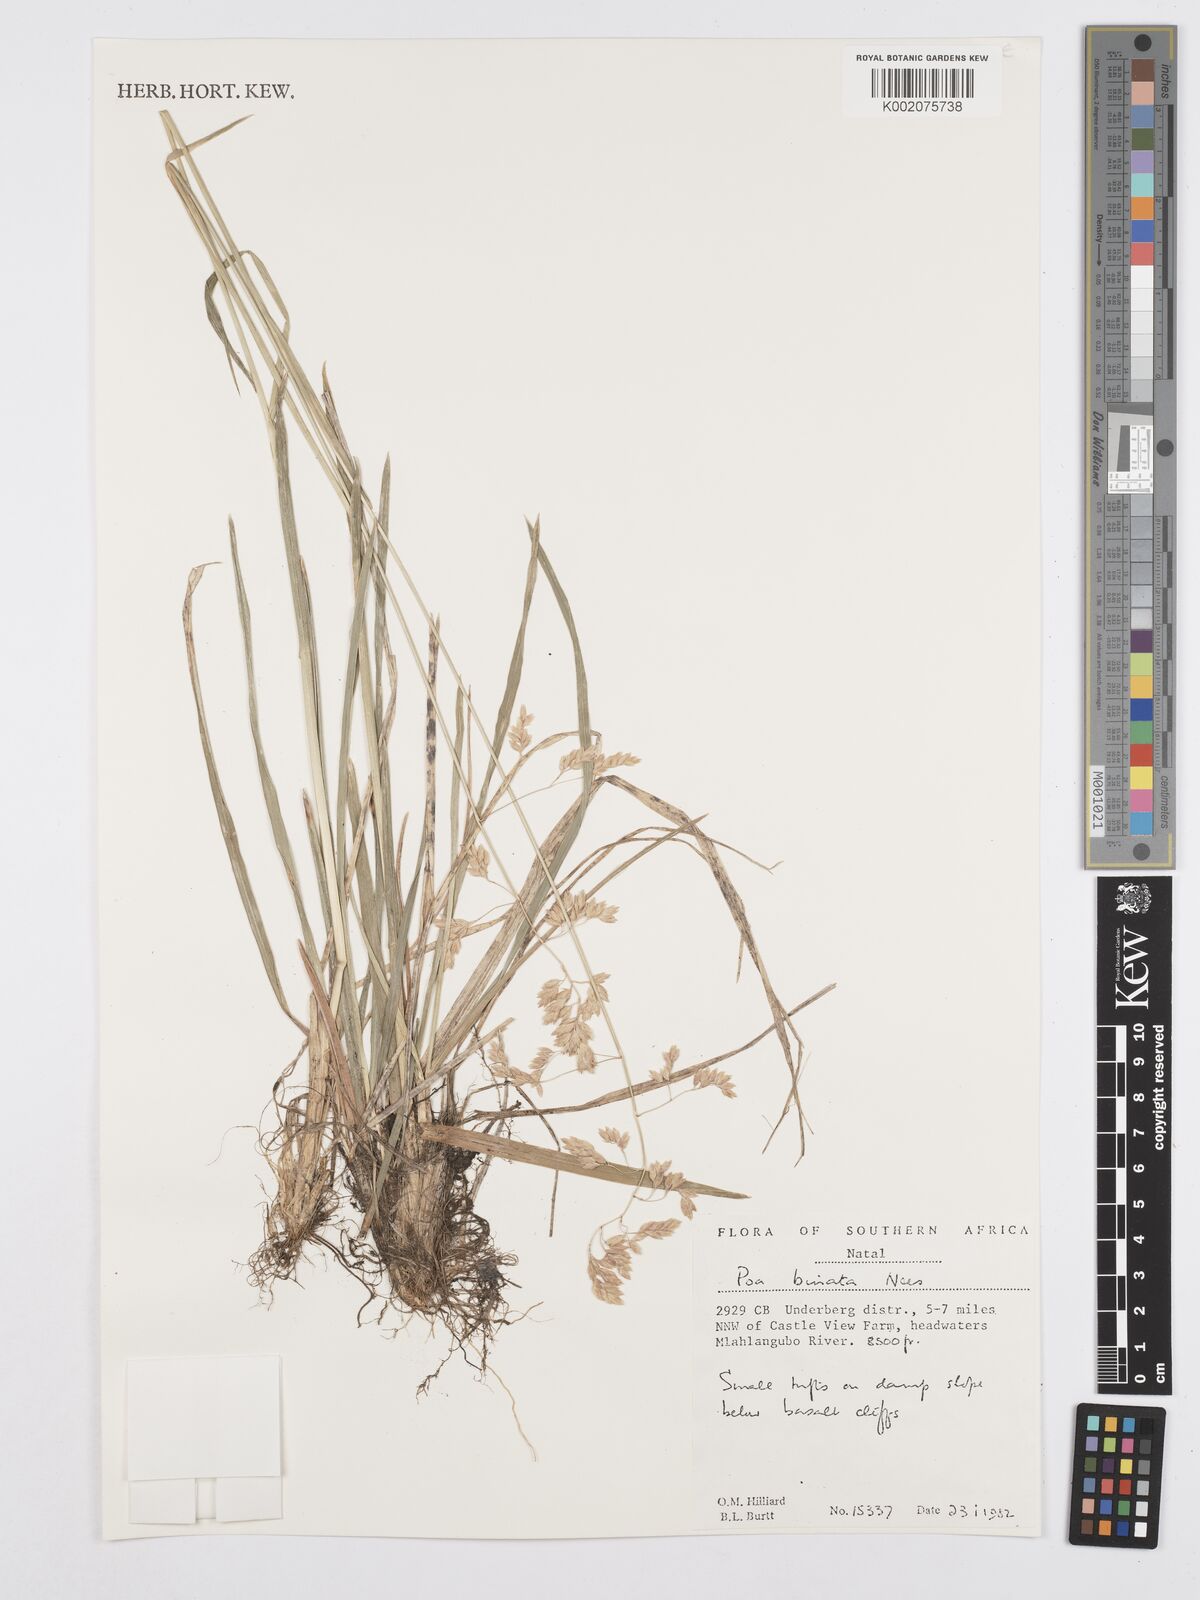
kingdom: Plantae
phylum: Tracheophyta
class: Liliopsida
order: Poales
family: Poaceae
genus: Poa
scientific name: Poa binata
